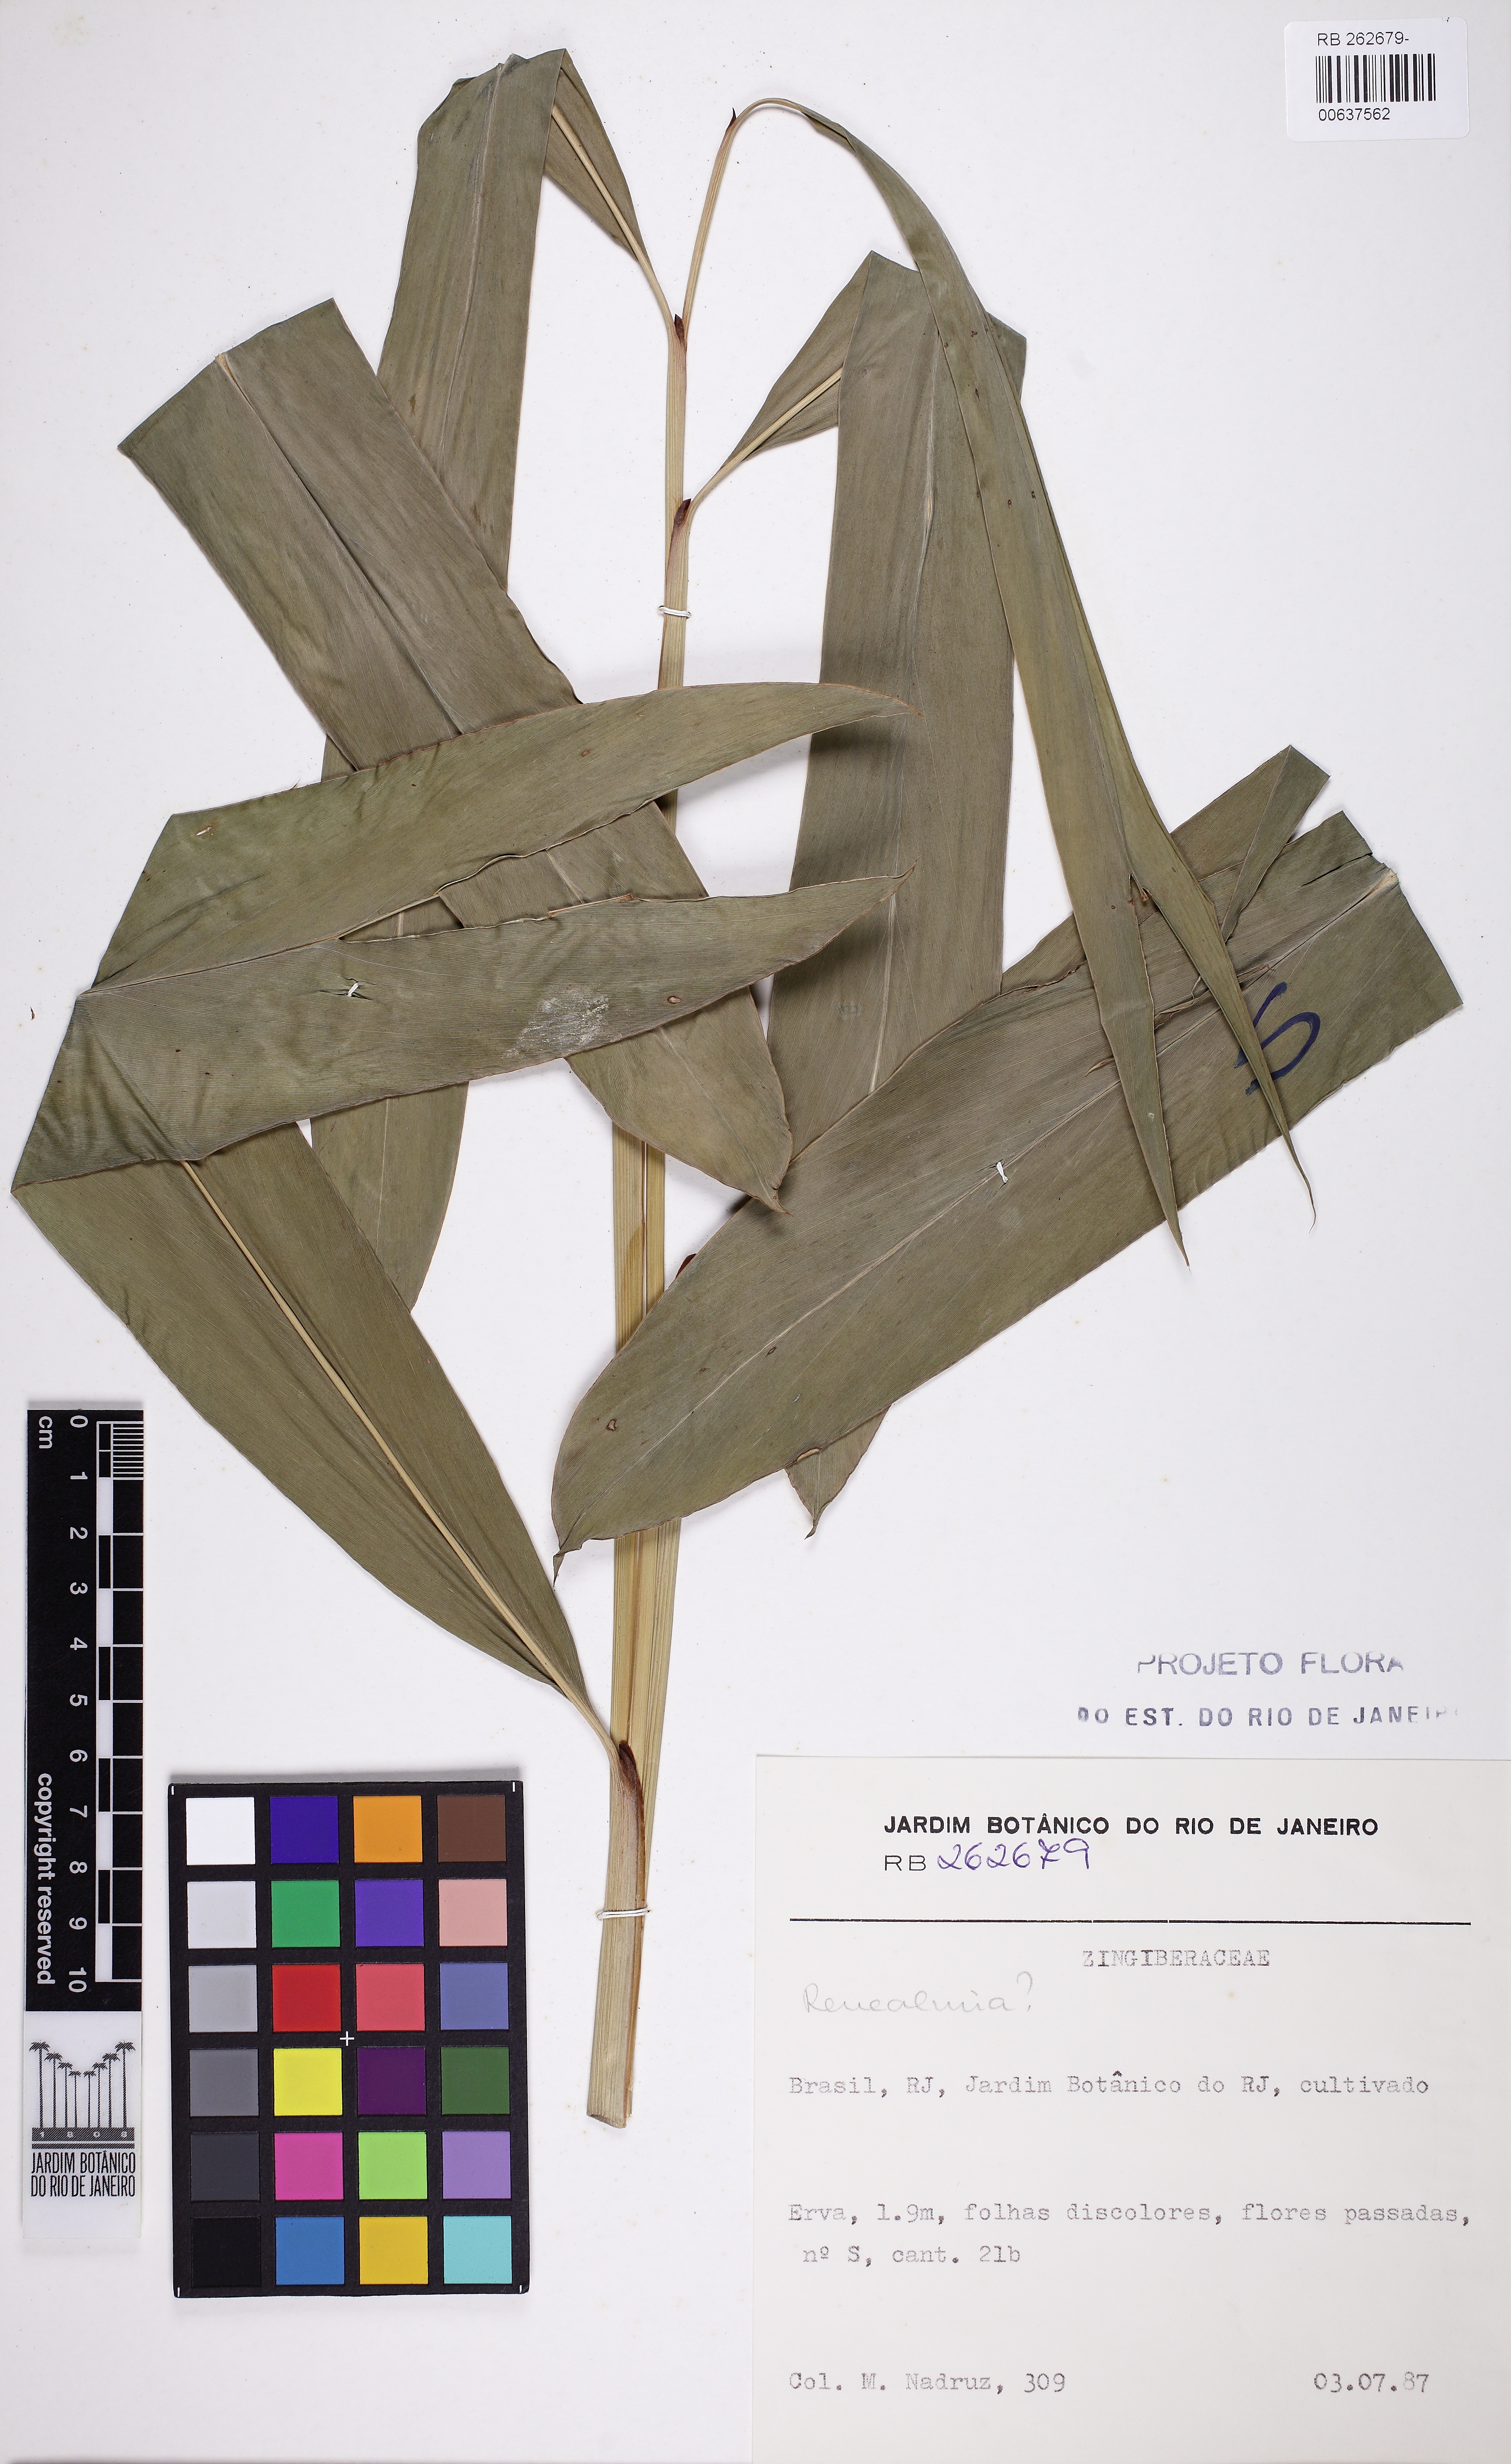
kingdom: Plantae
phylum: Tracheophyta
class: Liliopsida
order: Zingiberales
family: Zingiberaceae
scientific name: Zingiberaceae
